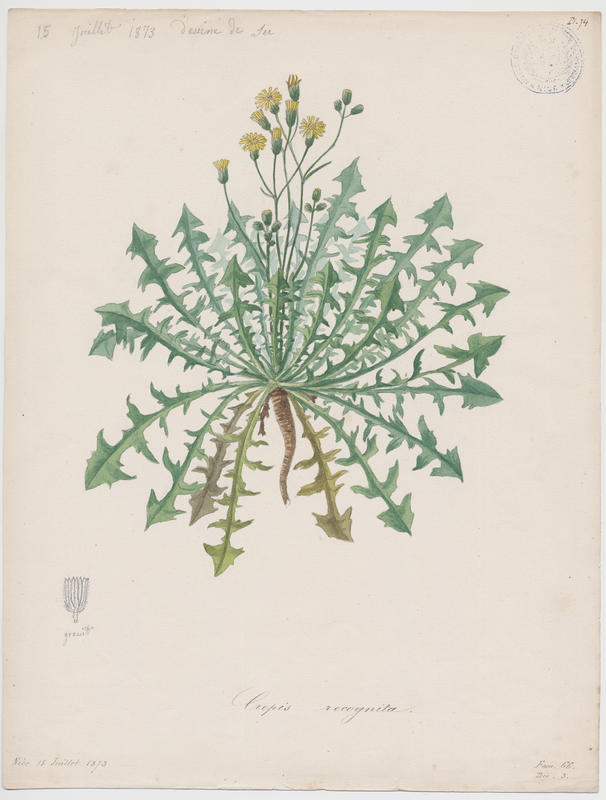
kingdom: Plantae
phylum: Tracheophyta
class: Magnoliopsida
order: Asterales
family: Asteraceae
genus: Crepis
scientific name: Crepis vesicaria
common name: Beaked hawksbeard
